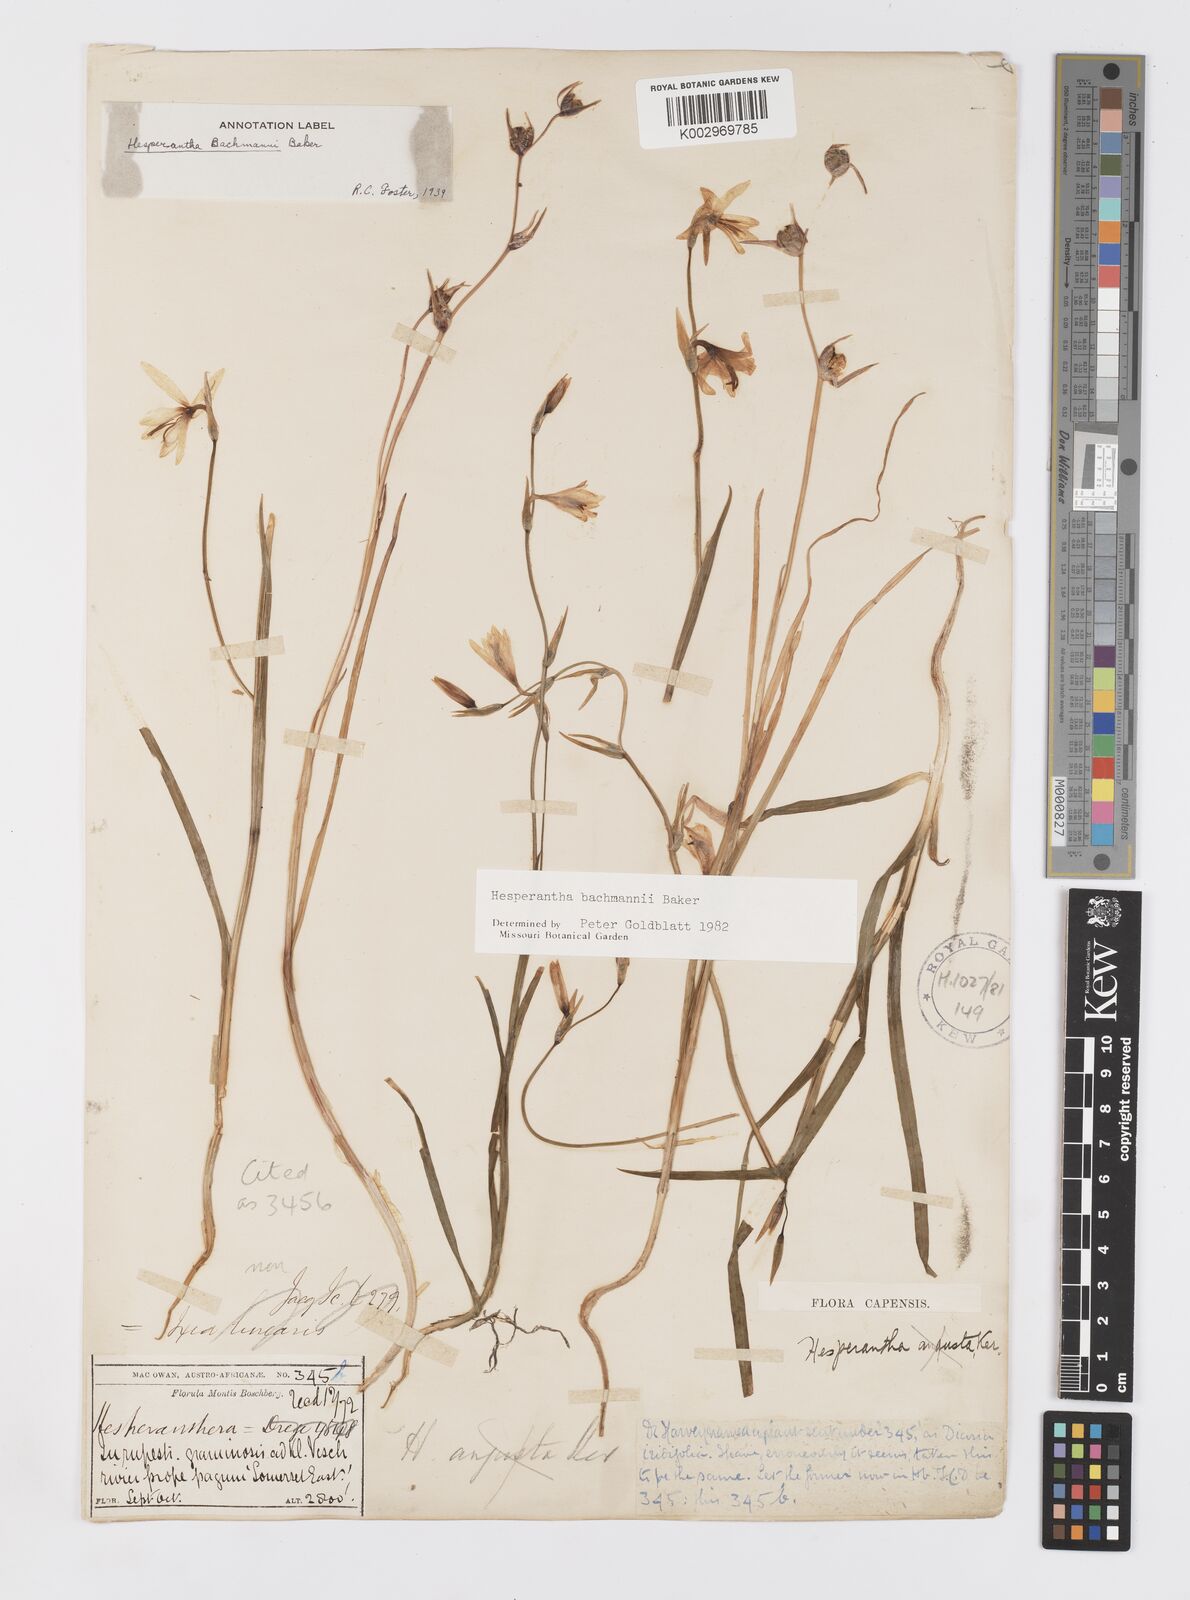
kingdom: Plantae
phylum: Tracheophyta
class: Liliopsida
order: Asparagales
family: Iridaceae
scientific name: Iridaceae
